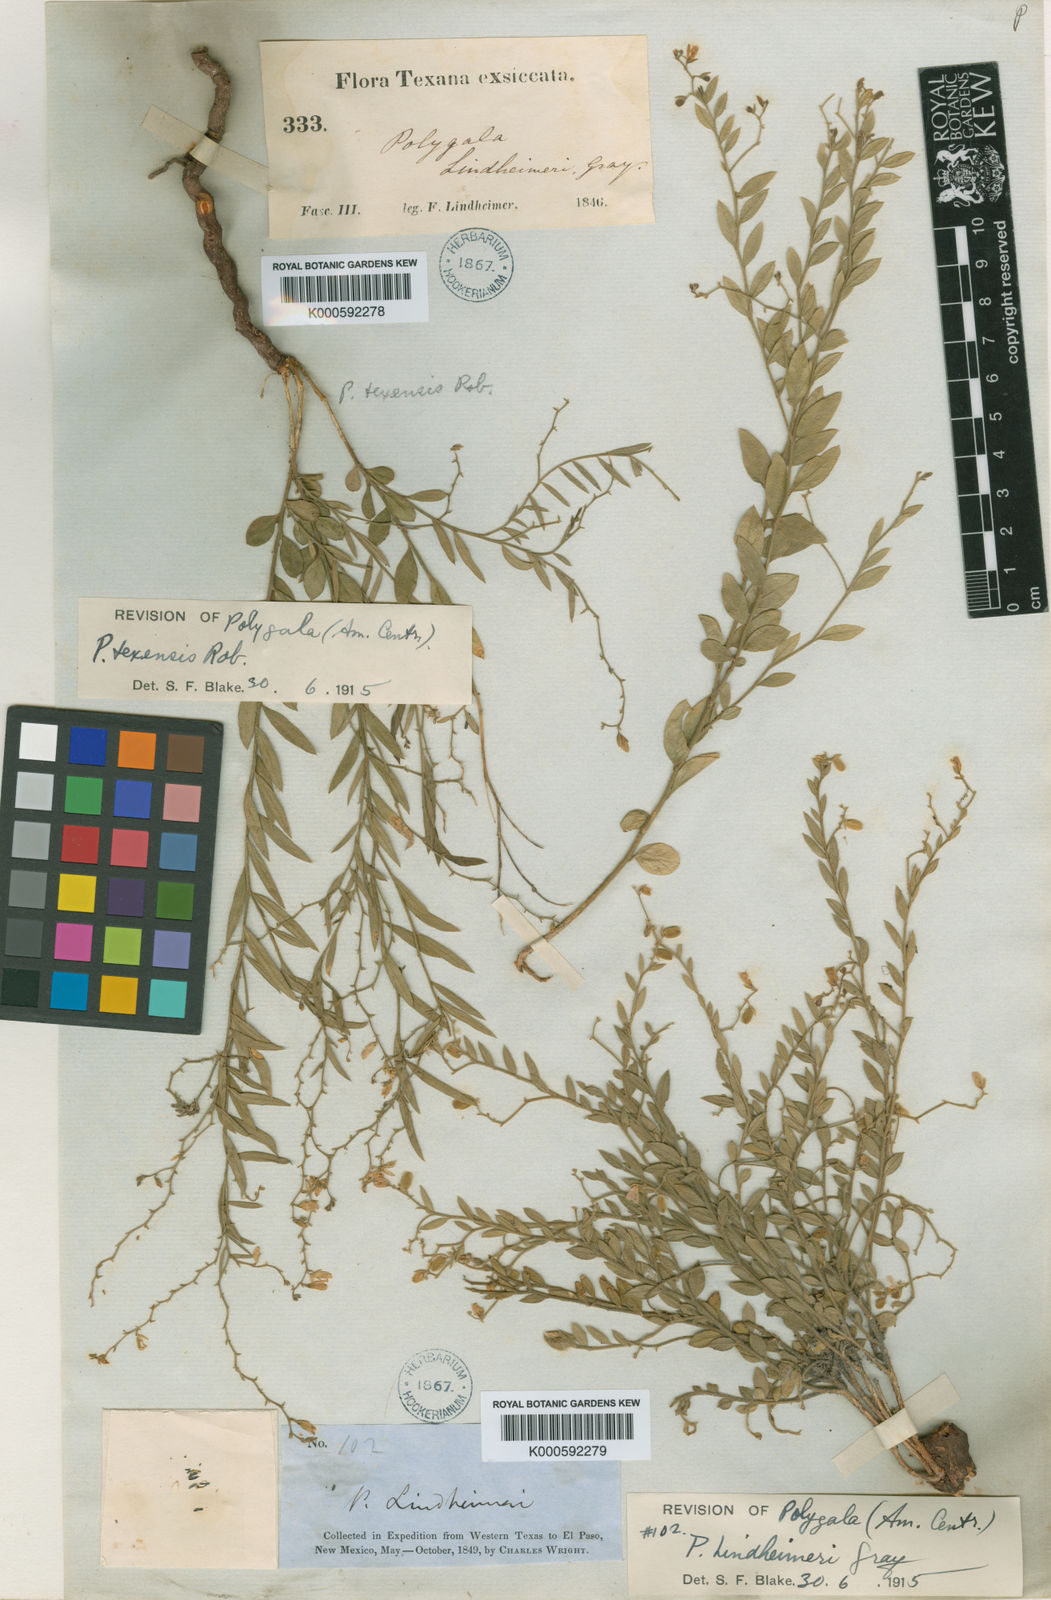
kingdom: Plantae
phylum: Tracheophyta
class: Magnoliopsida
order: Fabales
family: Polygalaceae
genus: Rhinotropis
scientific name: Rhinotropis lindheimeri
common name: Shrubby milkwort
